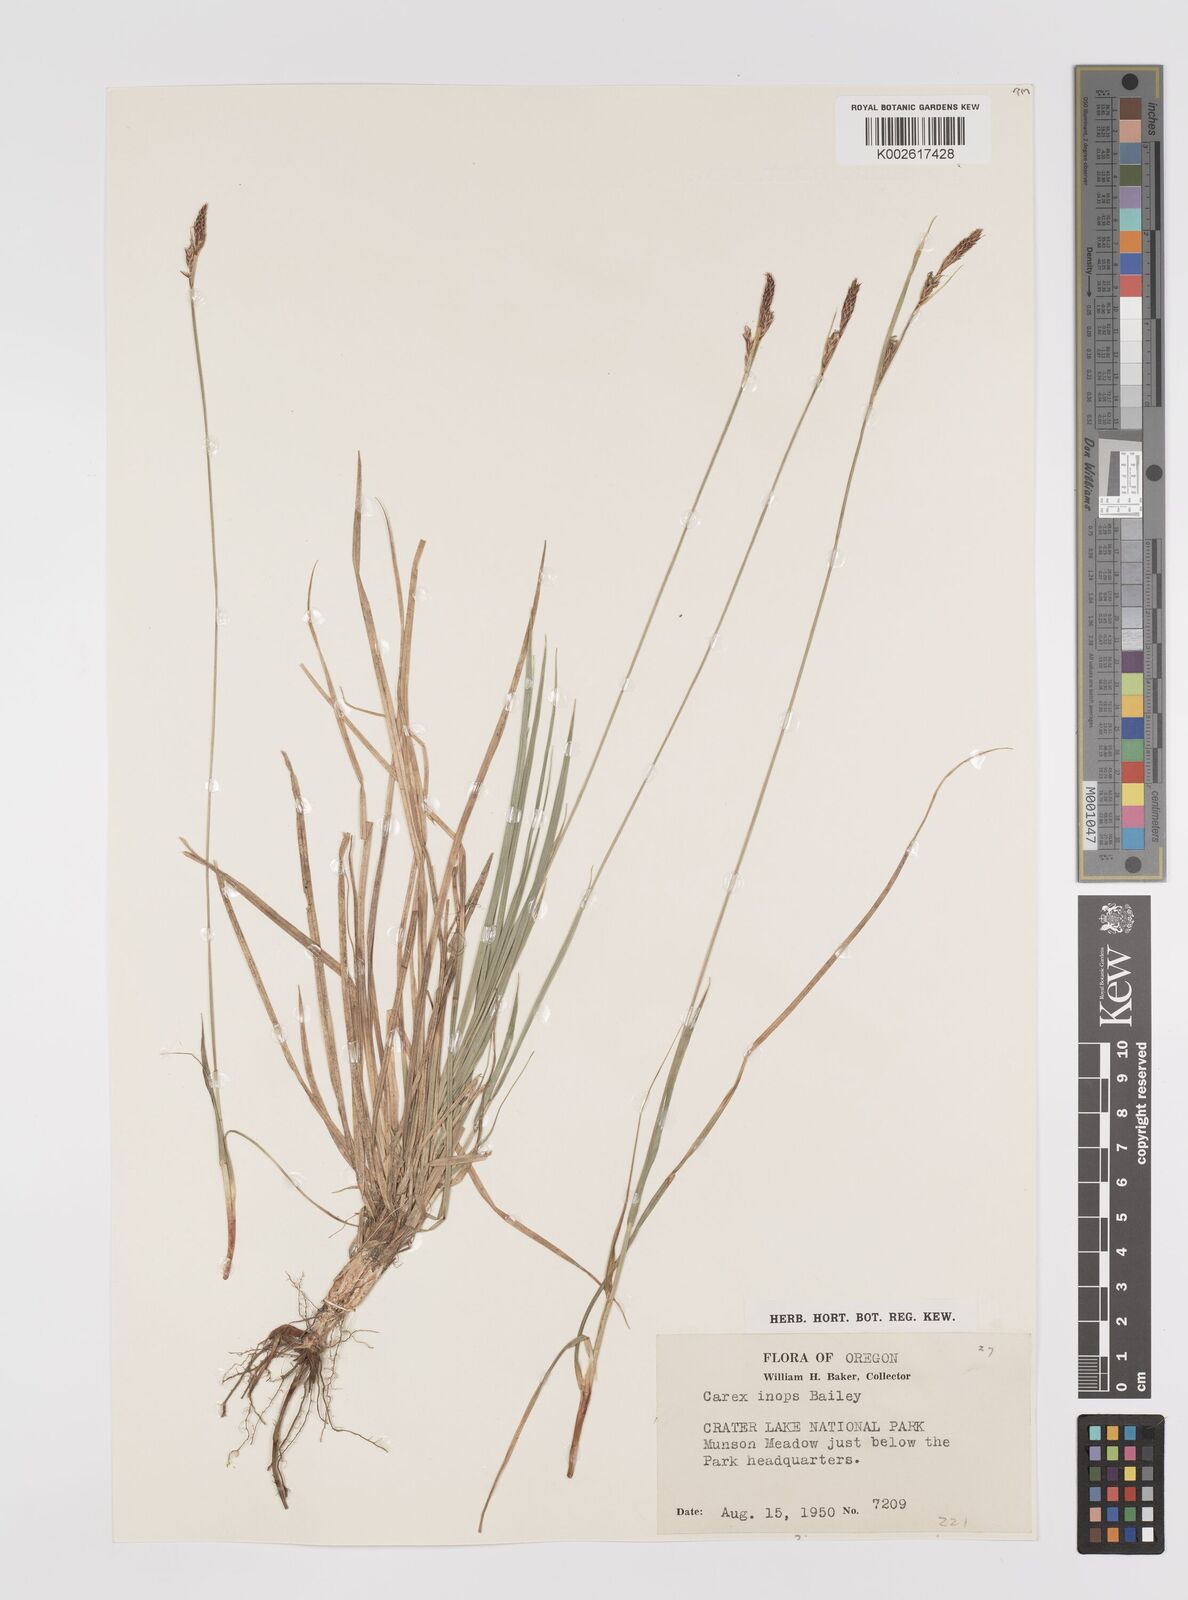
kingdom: Plantae
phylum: Tracheophyta
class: Liliopsida
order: Poales
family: Cyperaceae
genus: Carex
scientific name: Carex inops
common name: Long-stolon sedge
